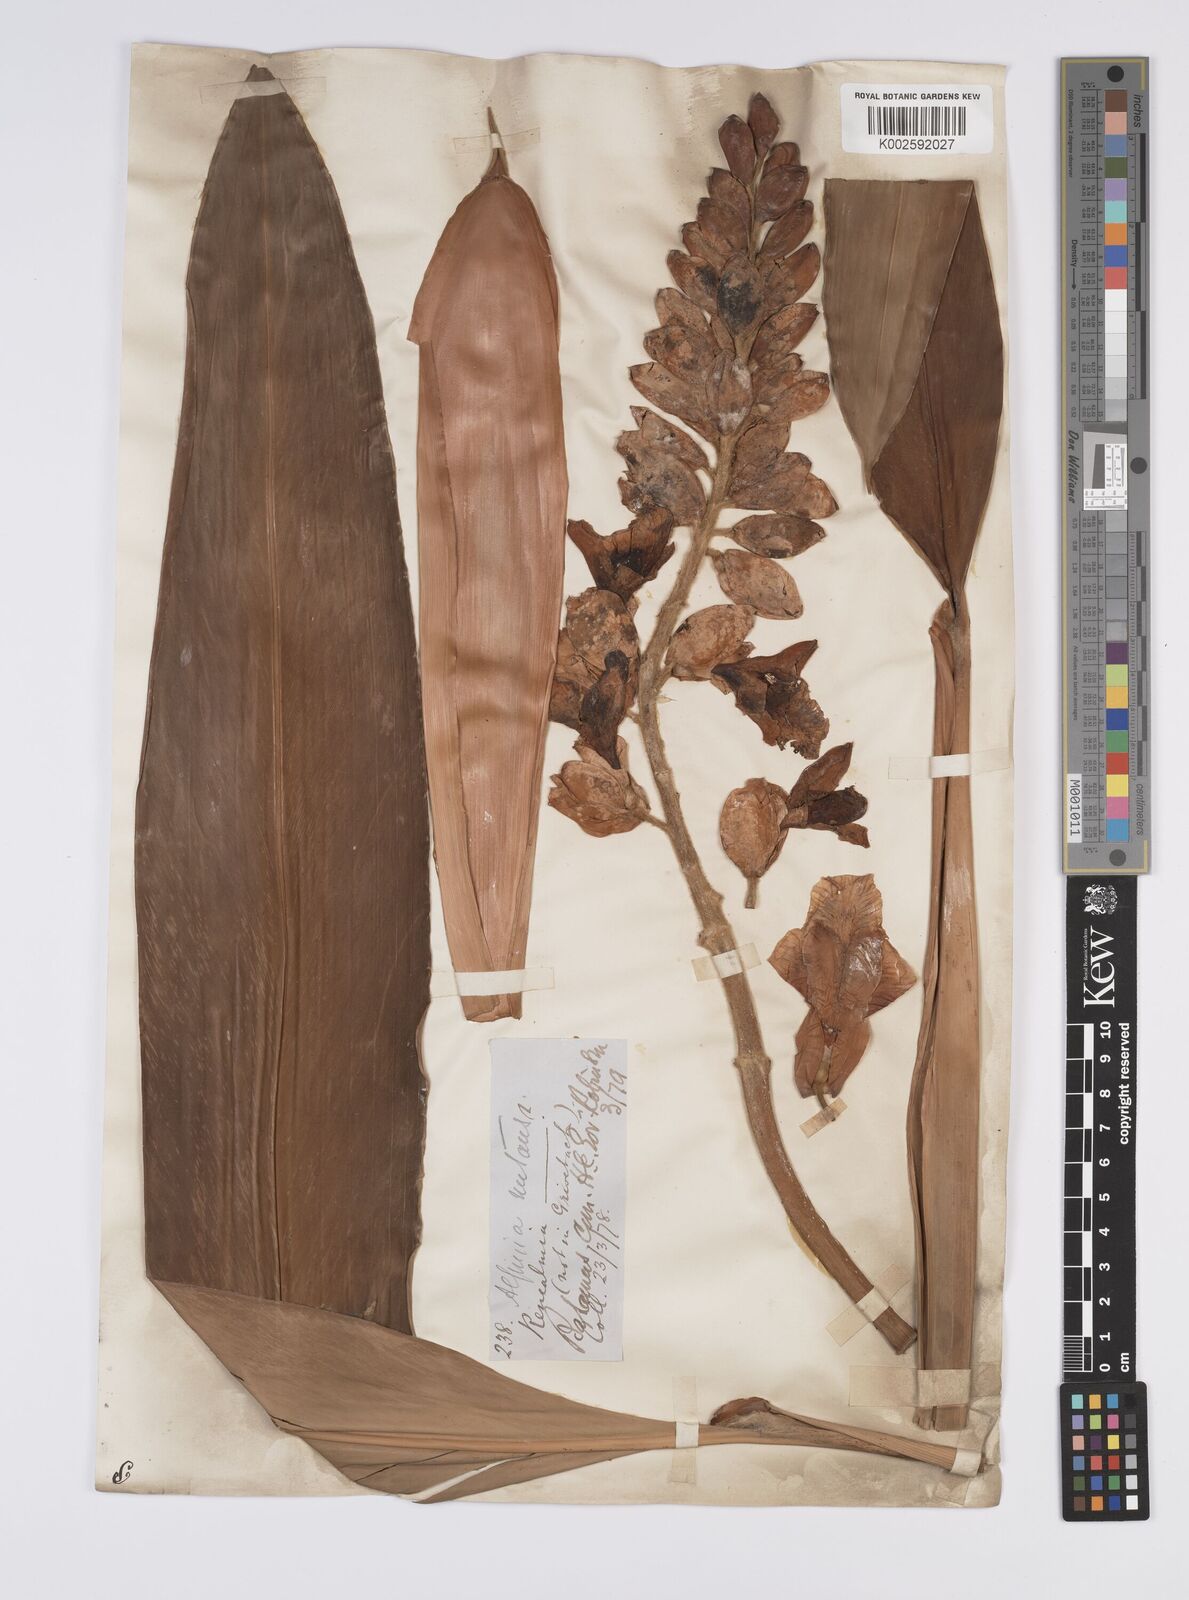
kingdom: Plantae
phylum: Tracheophyta
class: Liliopsida
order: Zingiberales
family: Zingiberaceae
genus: Alpinia
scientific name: Alpinia zerumbet
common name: Shellplant
